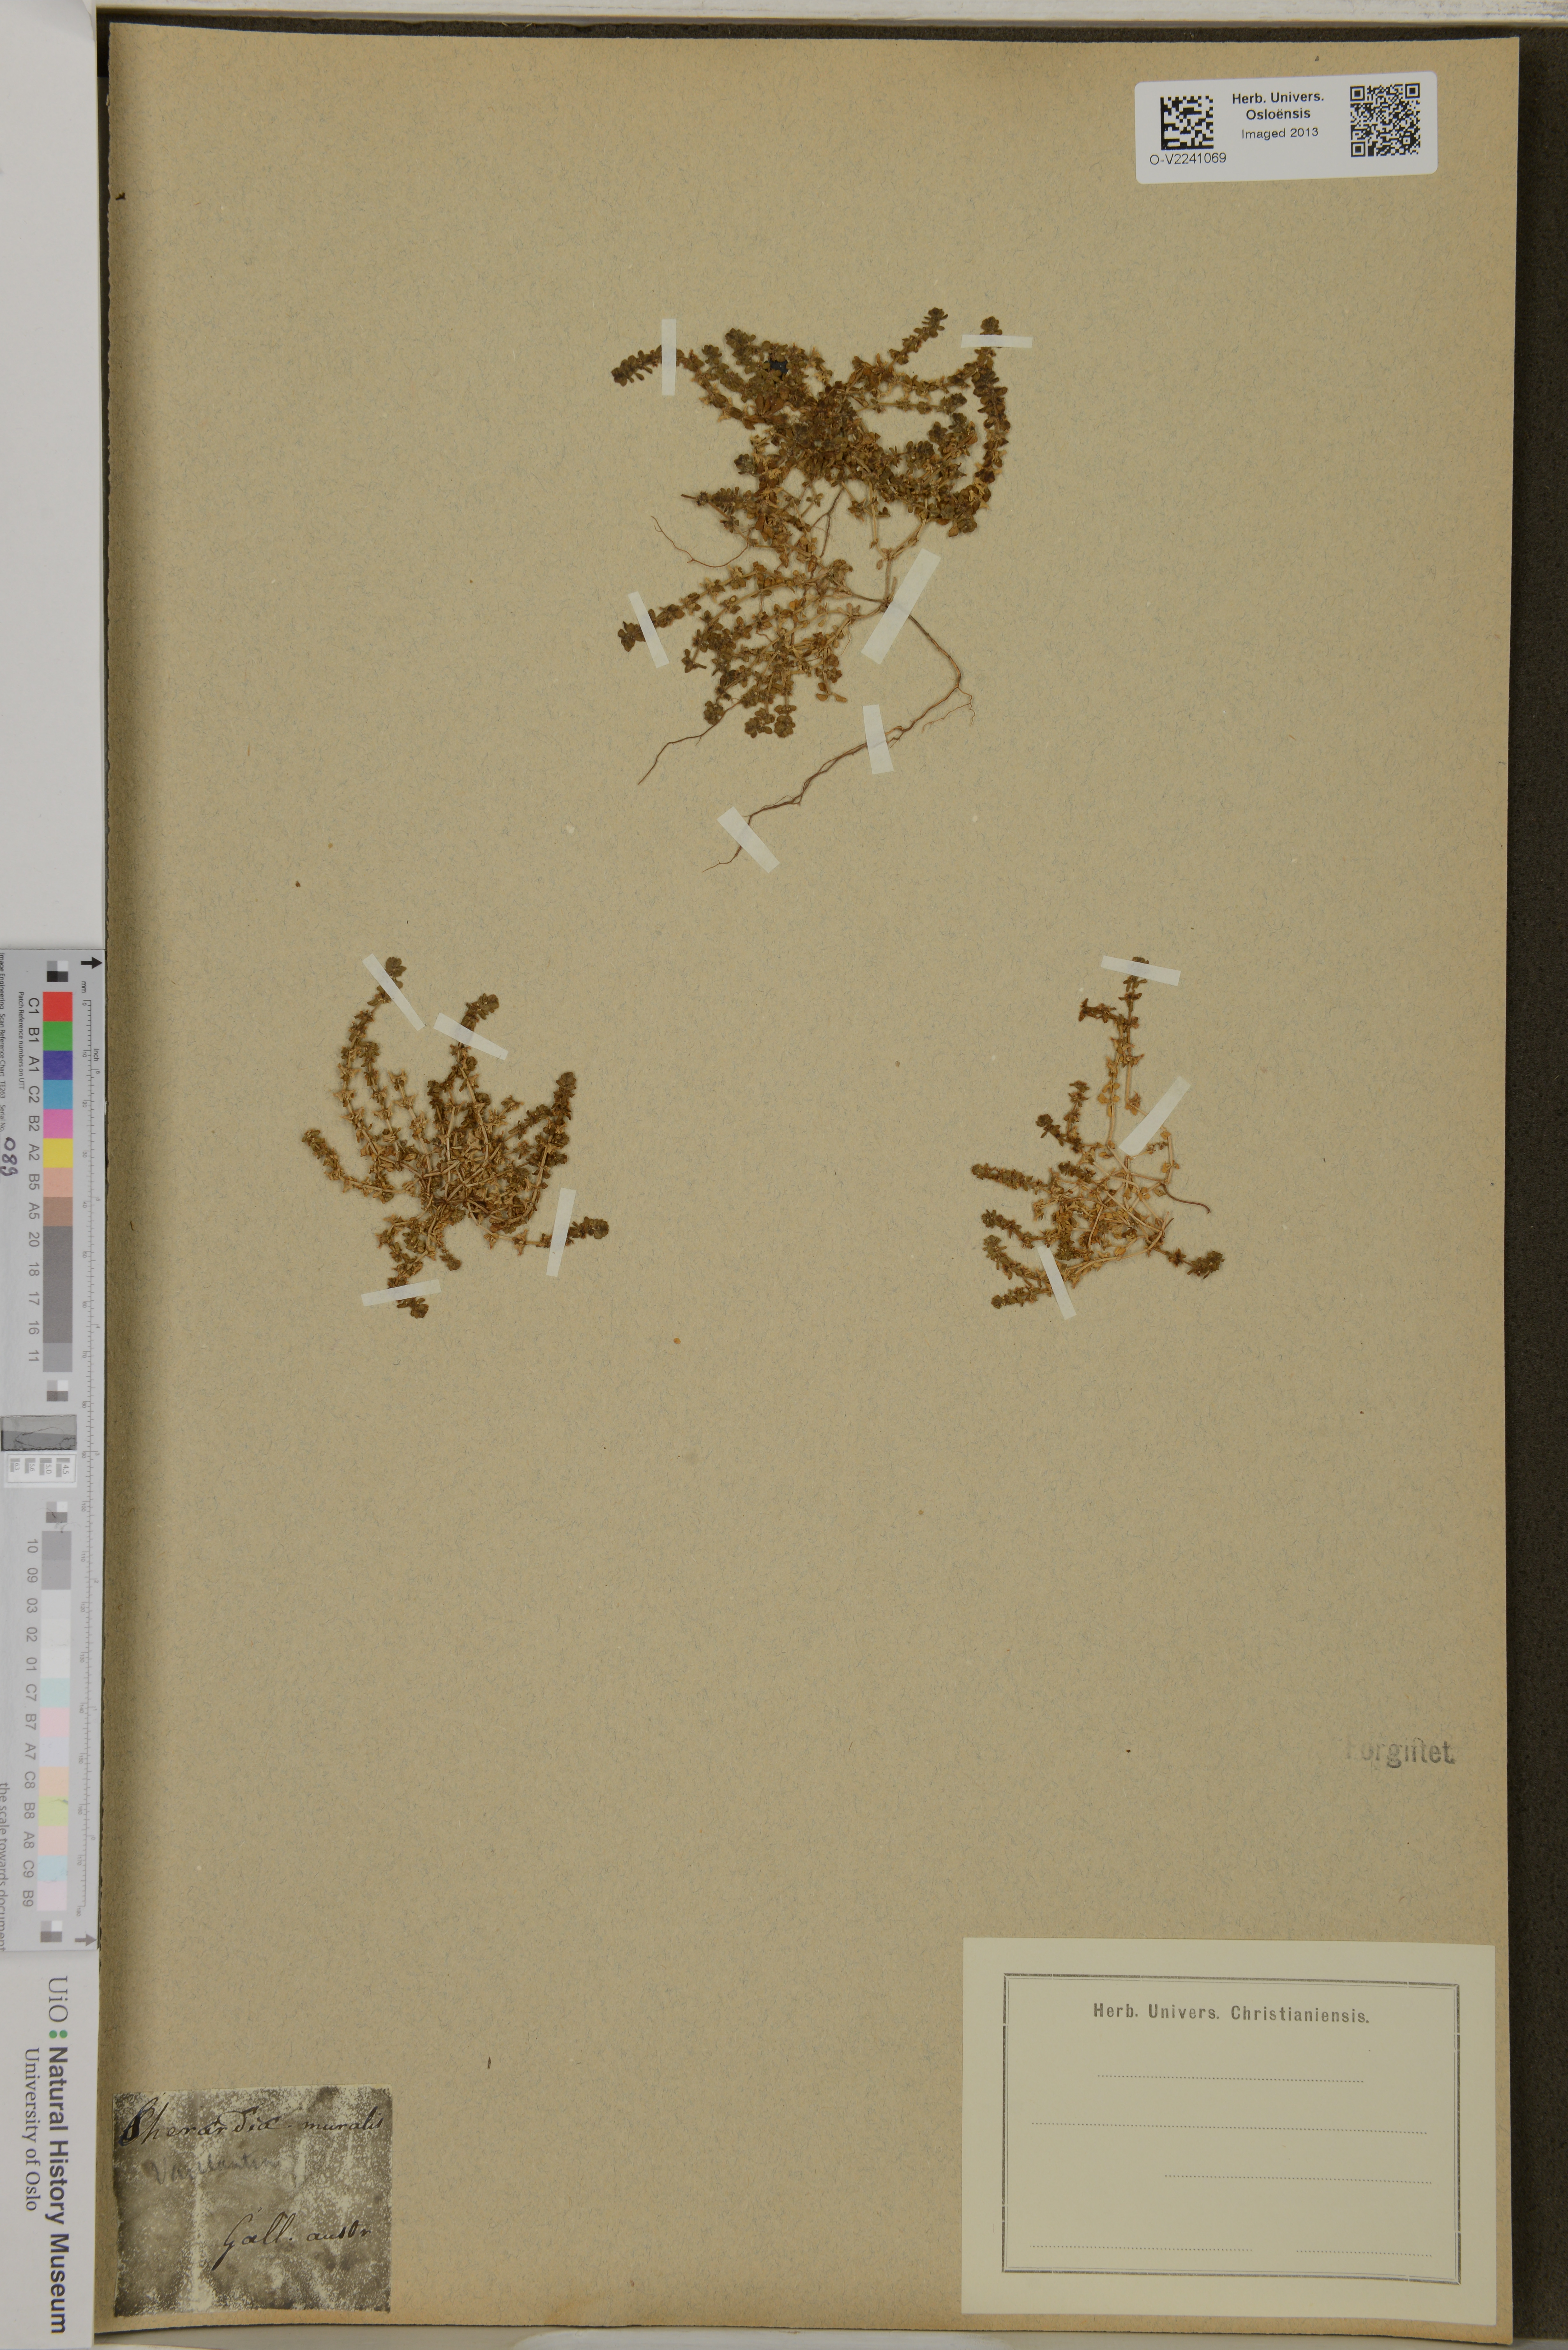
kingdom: Plantae
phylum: Tracheophyta
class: Magnoliopsida
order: Gentianales
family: Rubiaceae
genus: Valantia
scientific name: Valantia muralis
